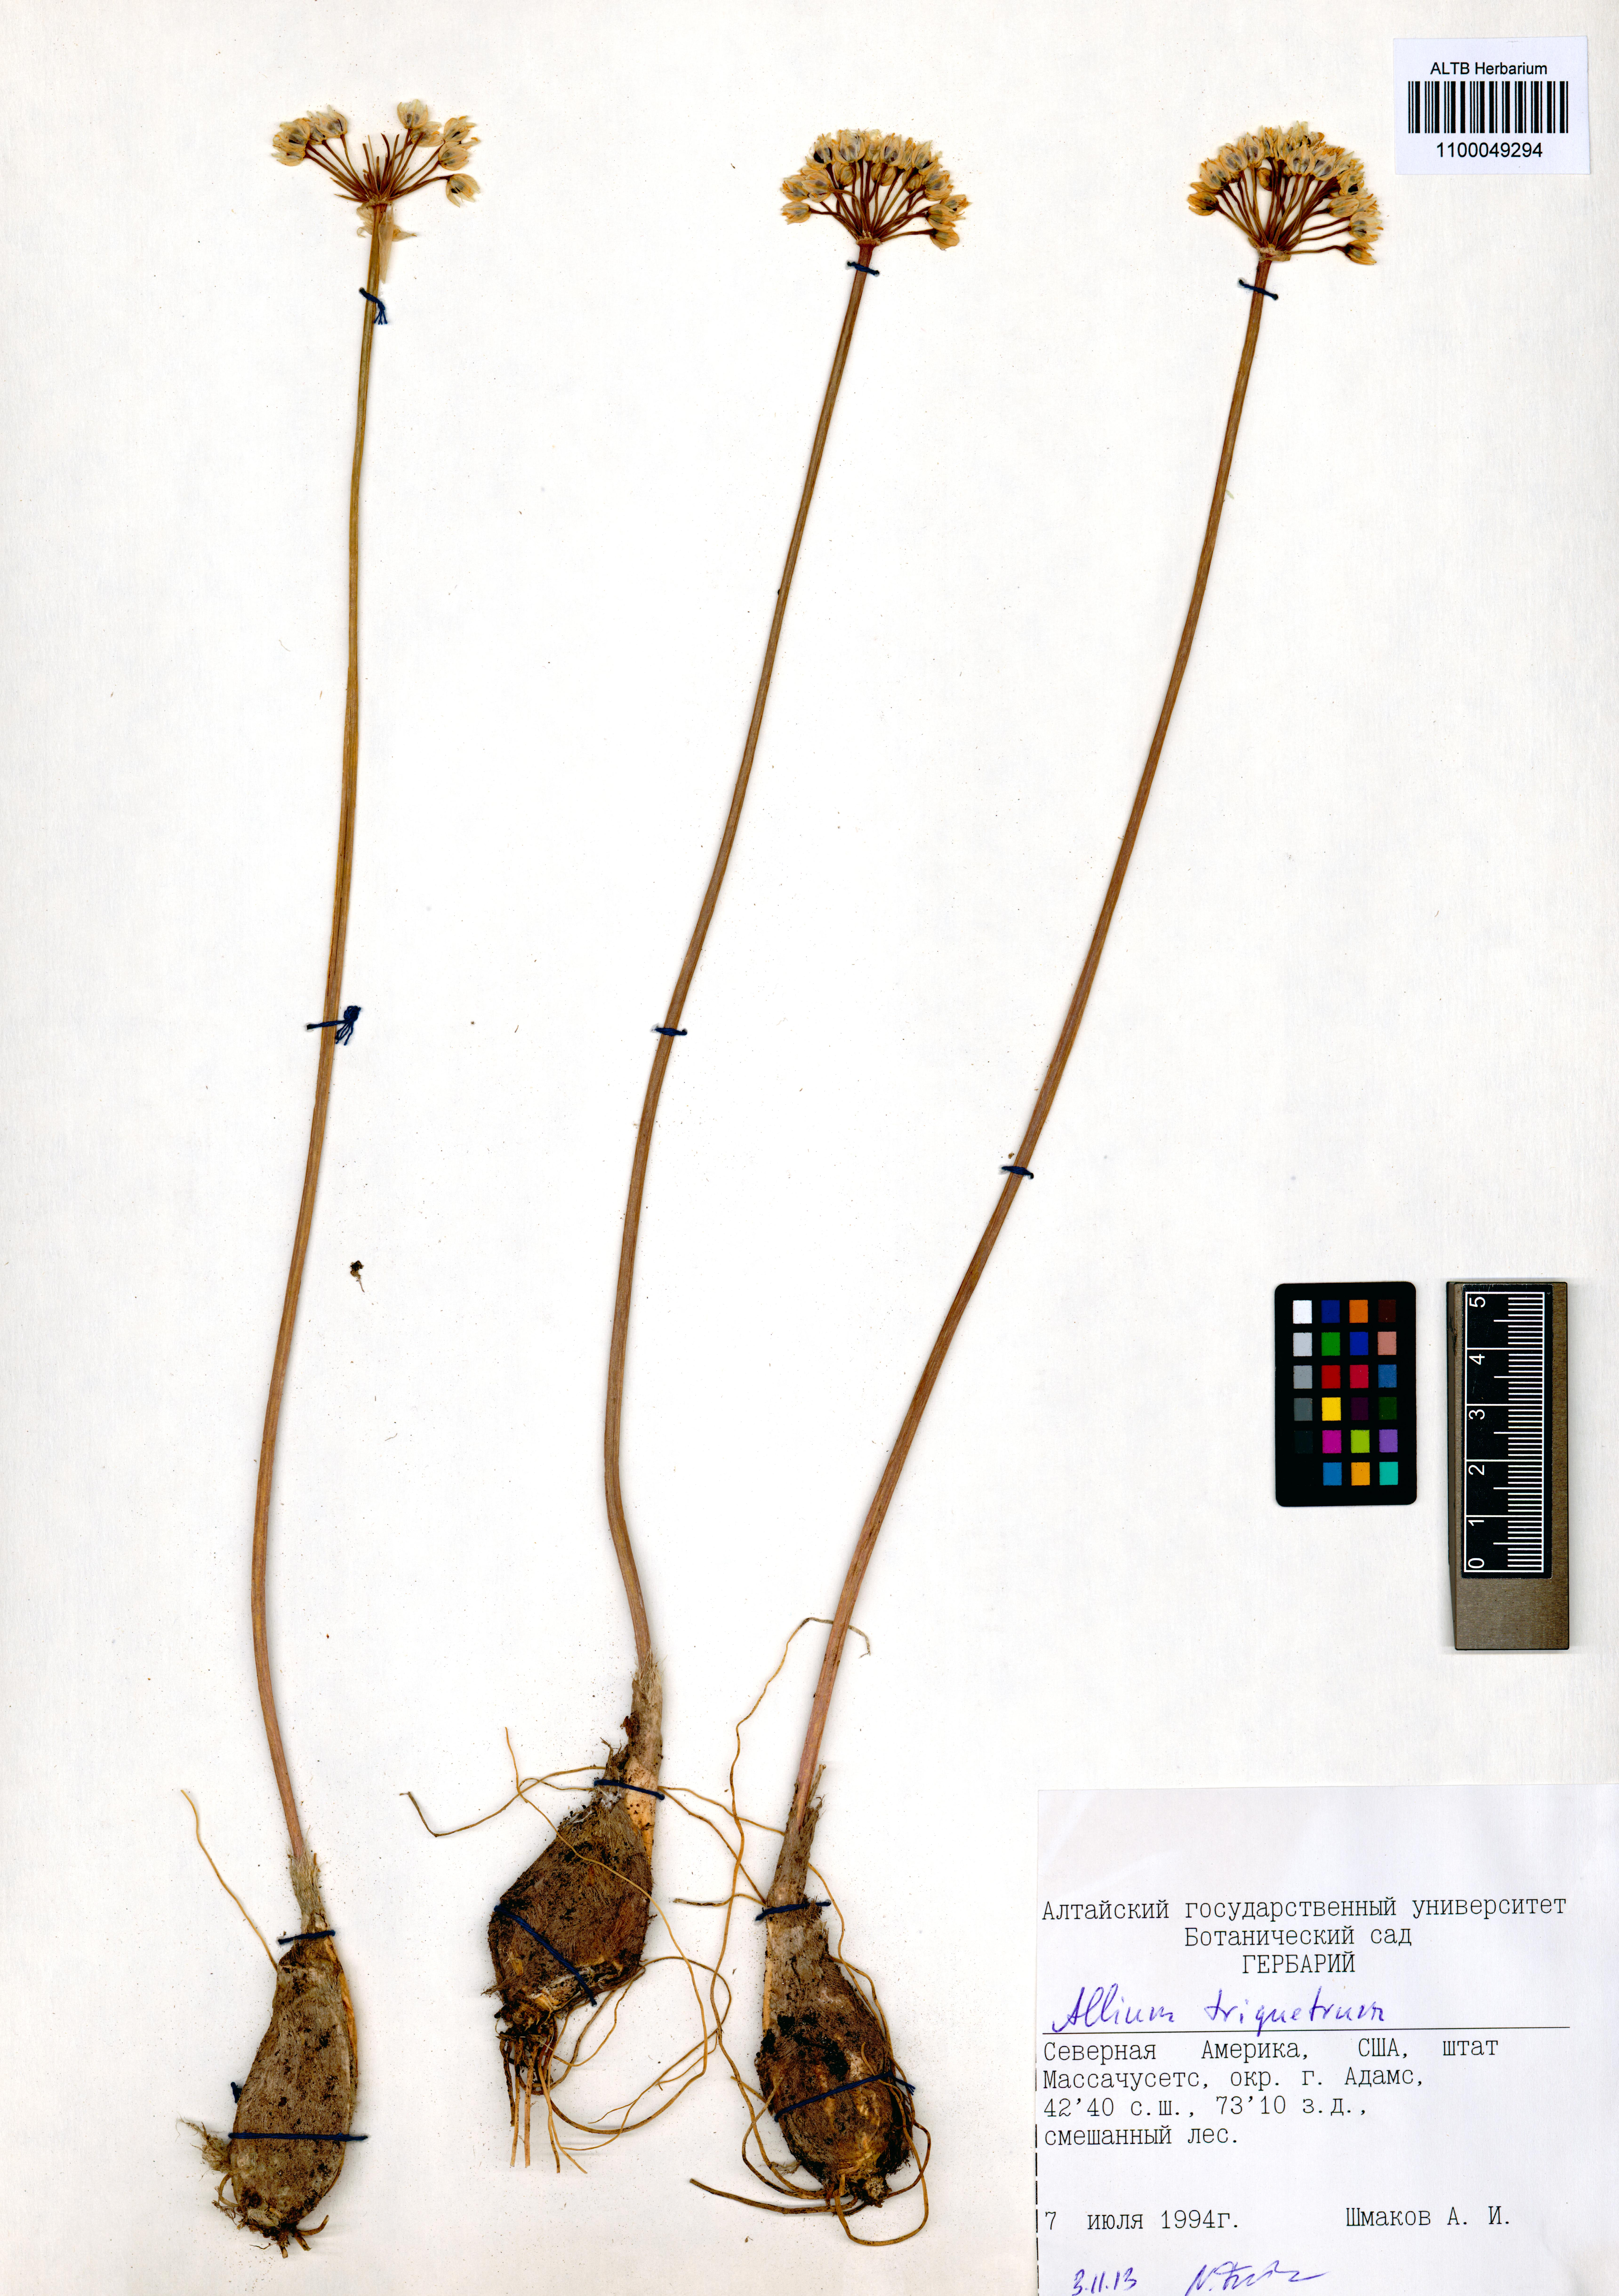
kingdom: Plantae
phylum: Tracheophyta
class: Liliopsida
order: Asparagales
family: Amaryllidaceae
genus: Allium
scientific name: Allium triquetrum
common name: Three-cornered garlic
